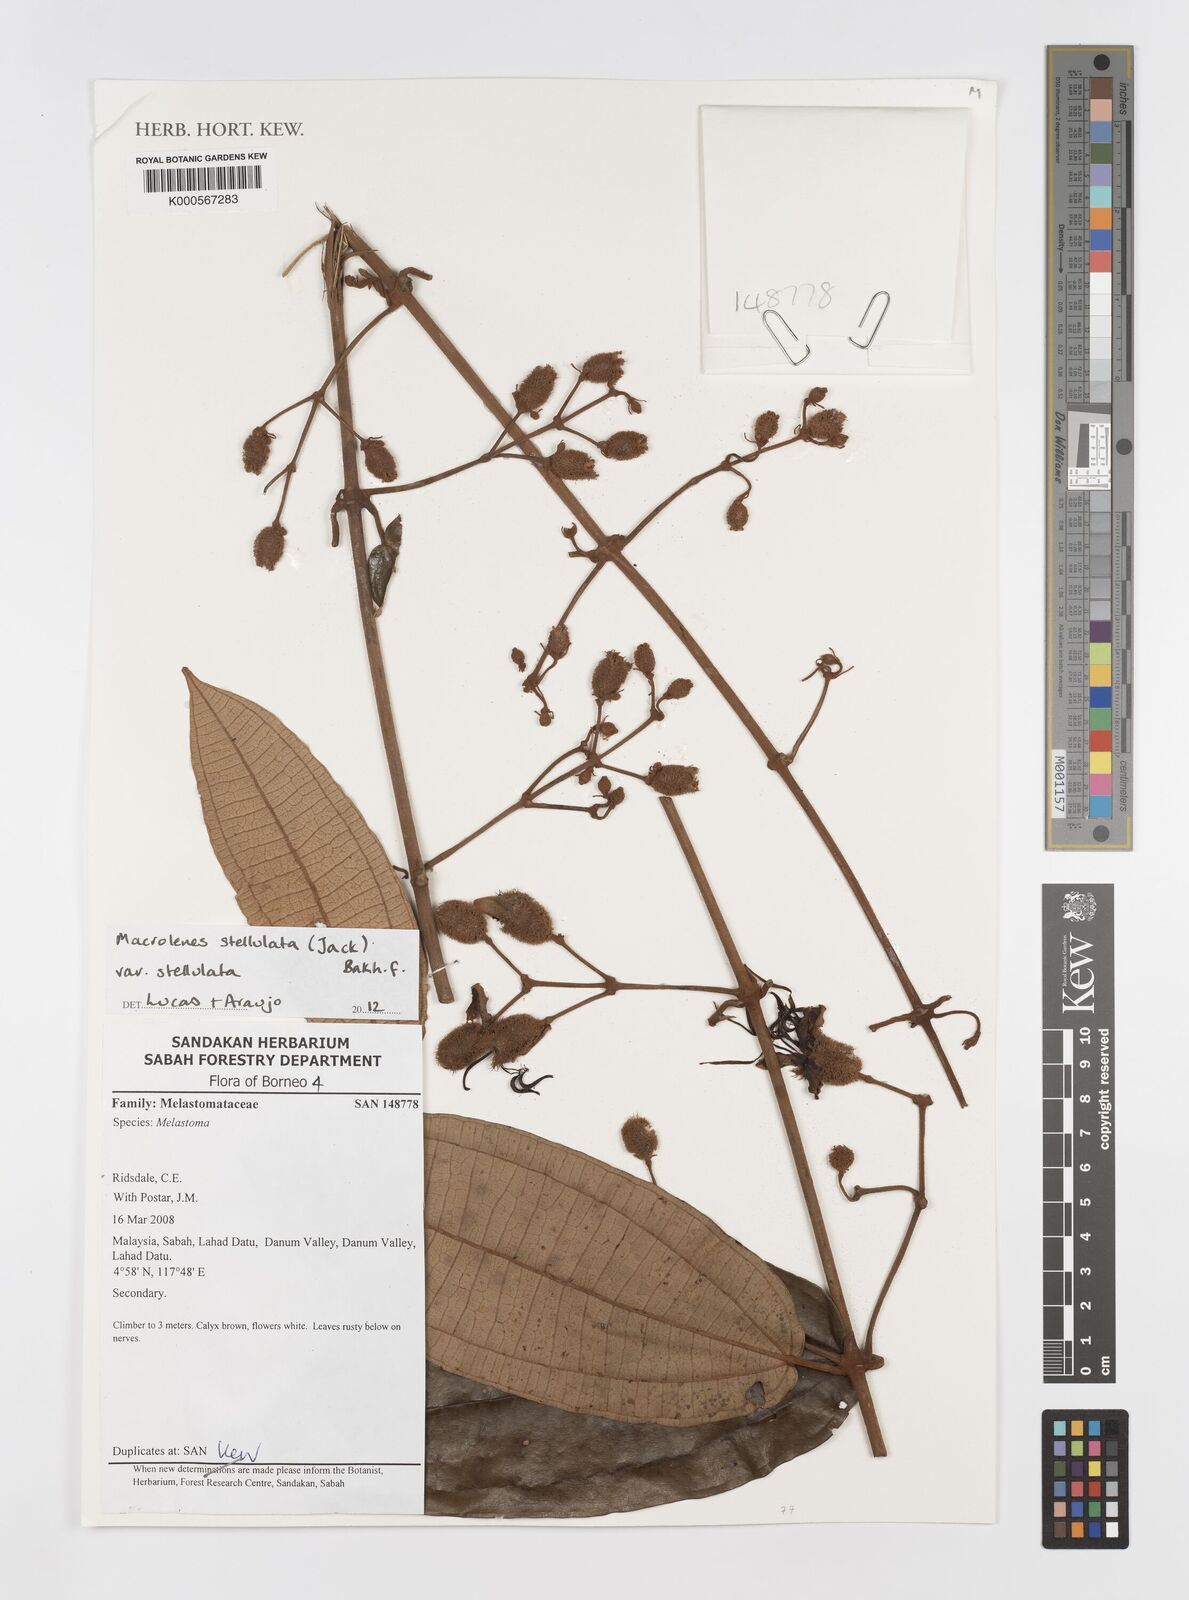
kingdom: Plantae
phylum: Tracheophyta
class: Magnoliopsida
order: Myrtales
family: Melastomataceae
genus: Macrolenes
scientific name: Macrolenes stellulata
